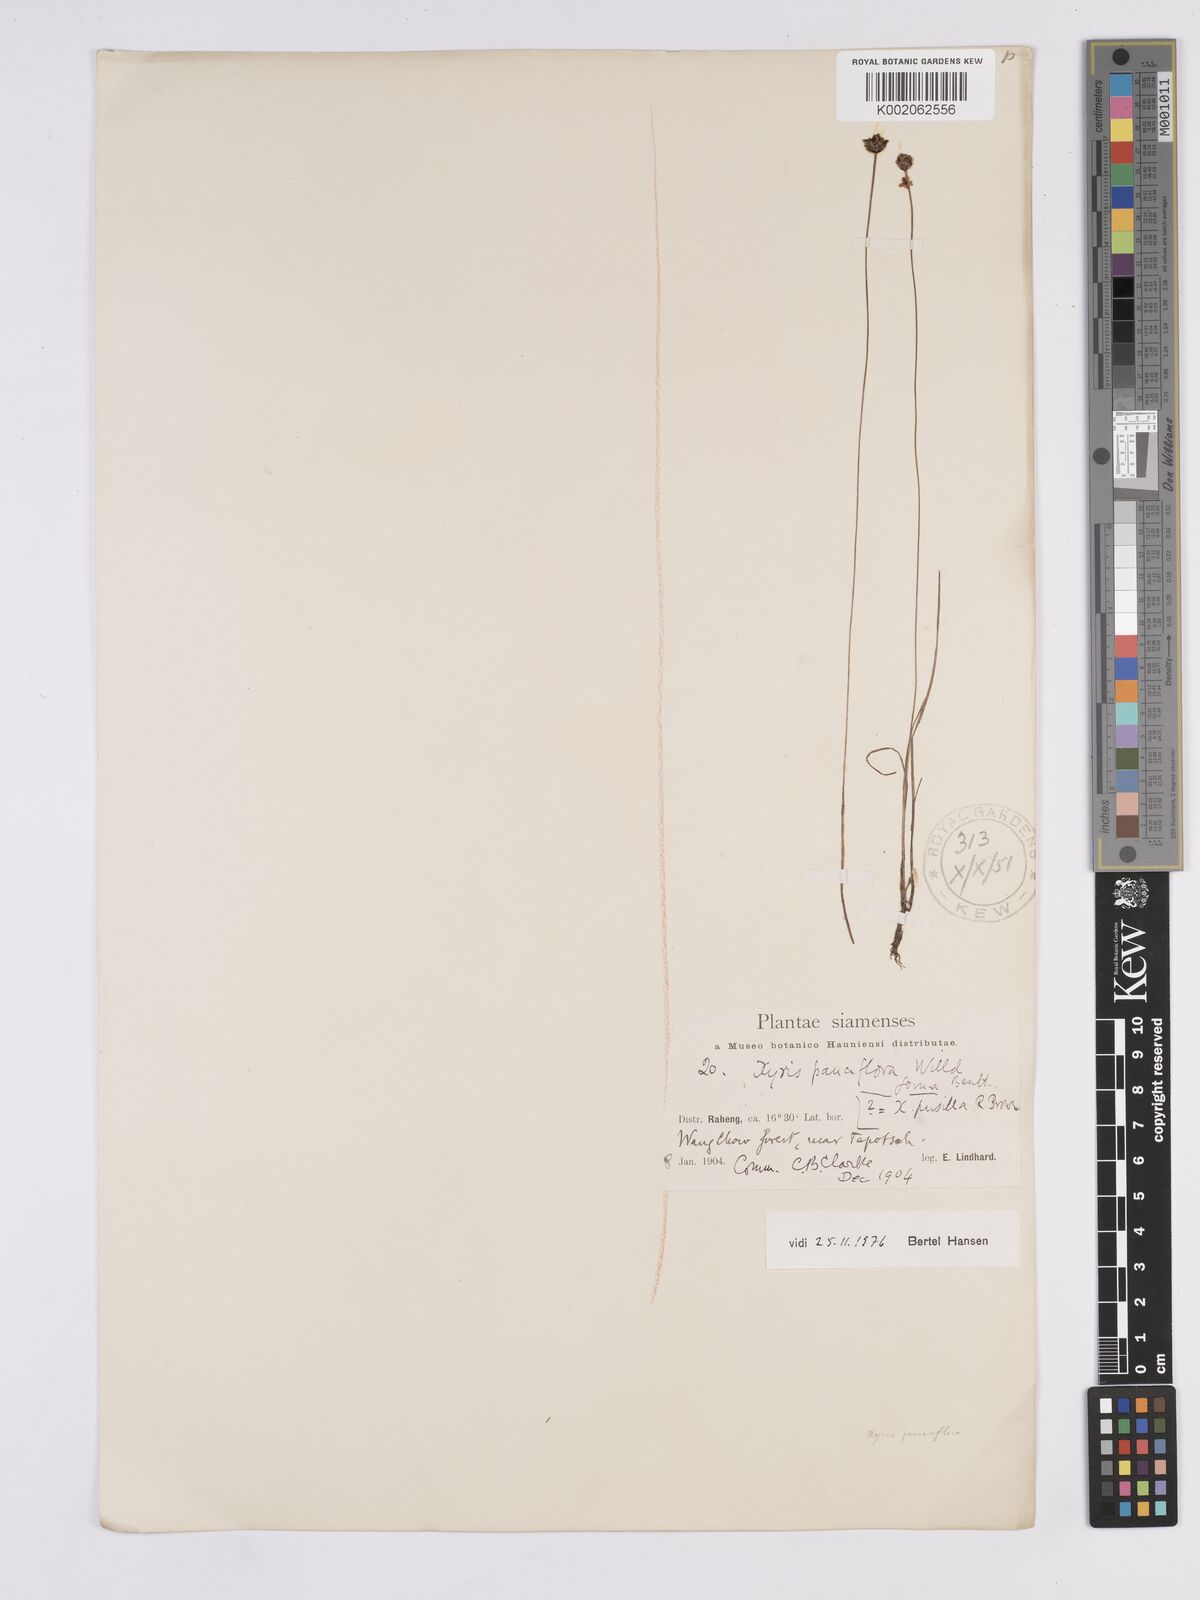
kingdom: Plantae
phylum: Tracheophyta
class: Liliopsida
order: Poales
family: Xyridaceae
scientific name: Xyridaceae
